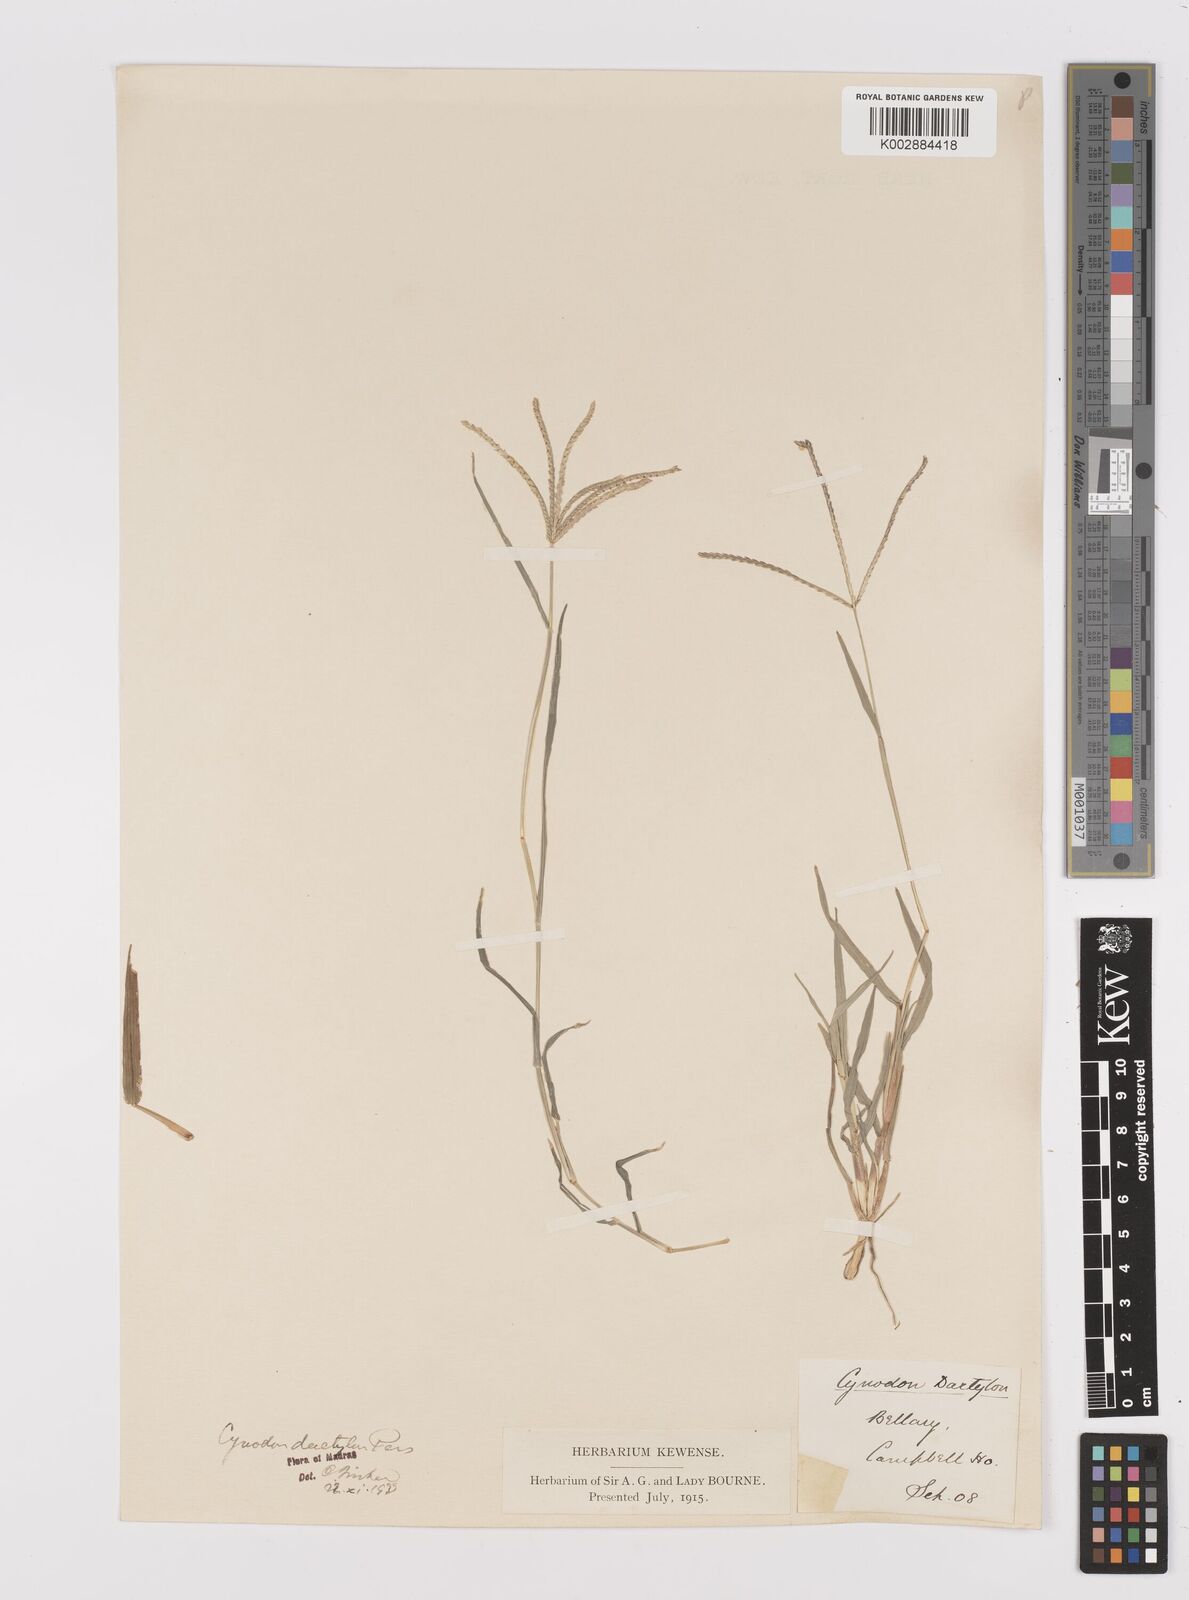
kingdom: Plantae
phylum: Tracheophyta
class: Liliopsida
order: Poales
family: Poaceae
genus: Cynodon
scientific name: Cynodon dactylon
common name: Bermuda grass
